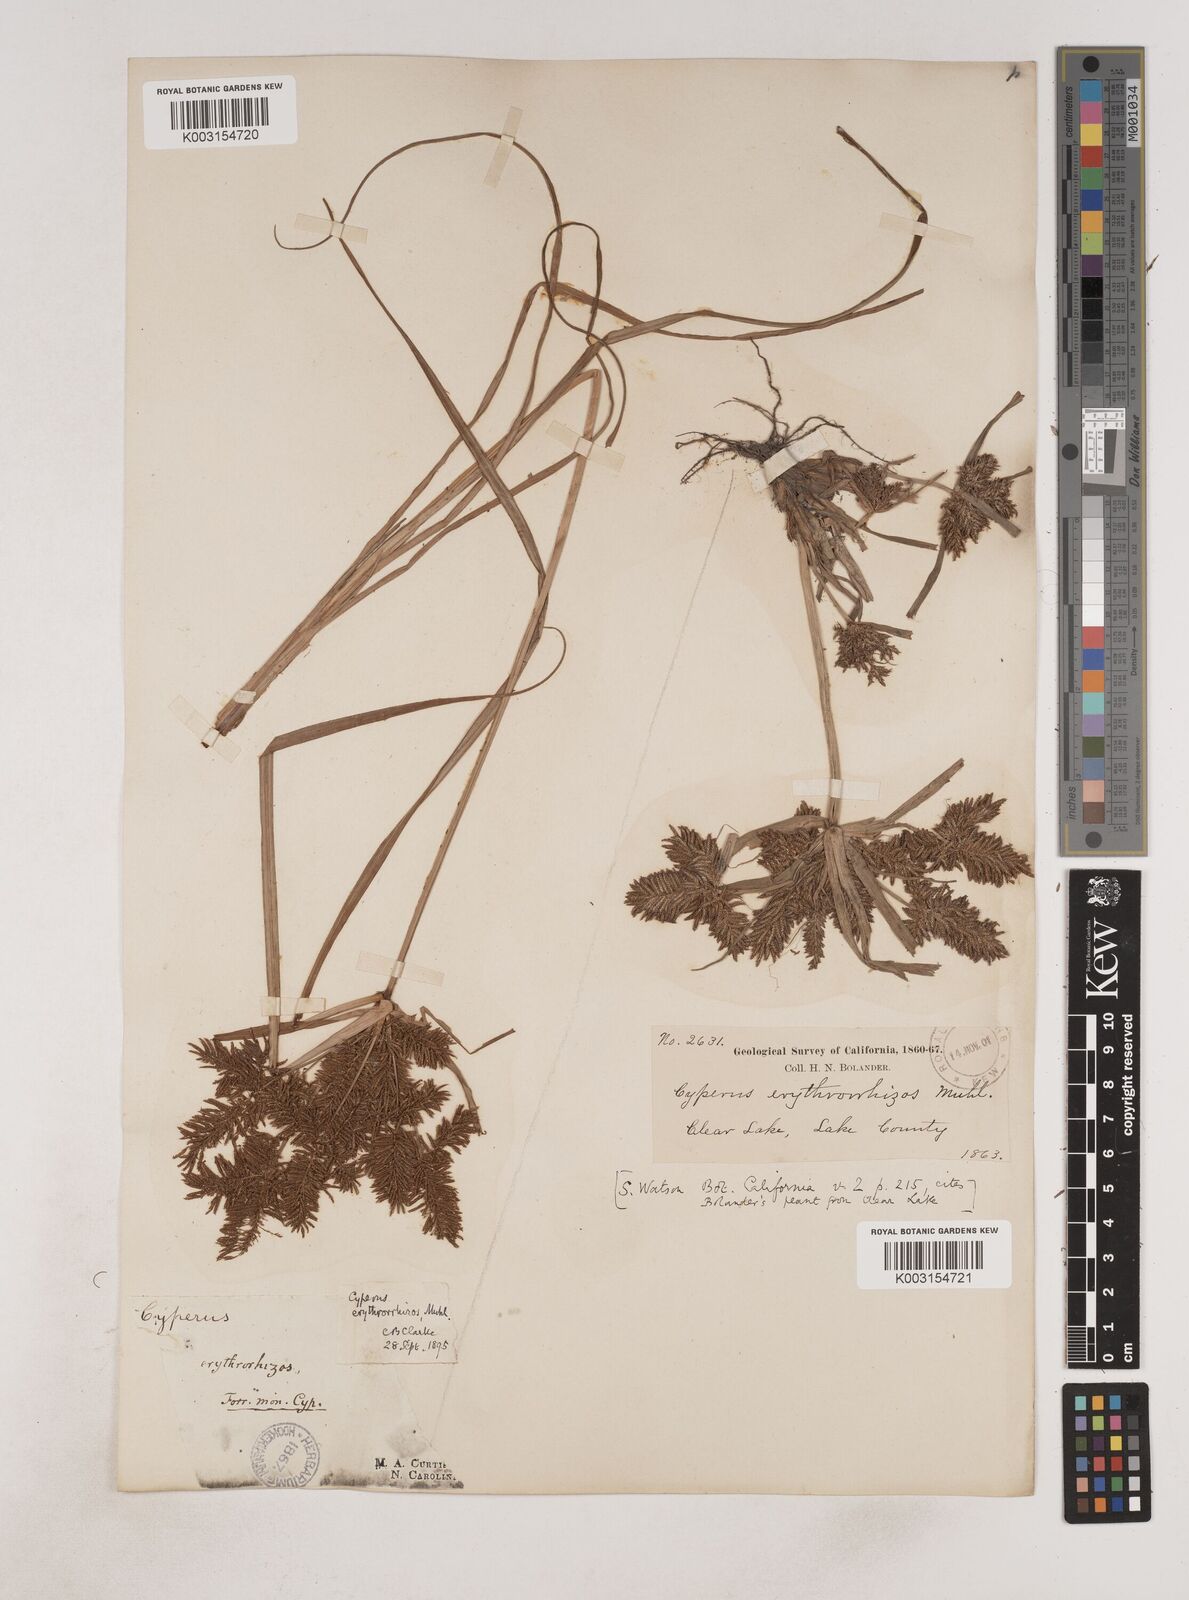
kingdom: Plantae
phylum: Tracheophyta
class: Liliopsida
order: Poales
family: Cyperaceae
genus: Cyperus
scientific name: Cyperus erythrorhizos
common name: Red-root flat sedge
